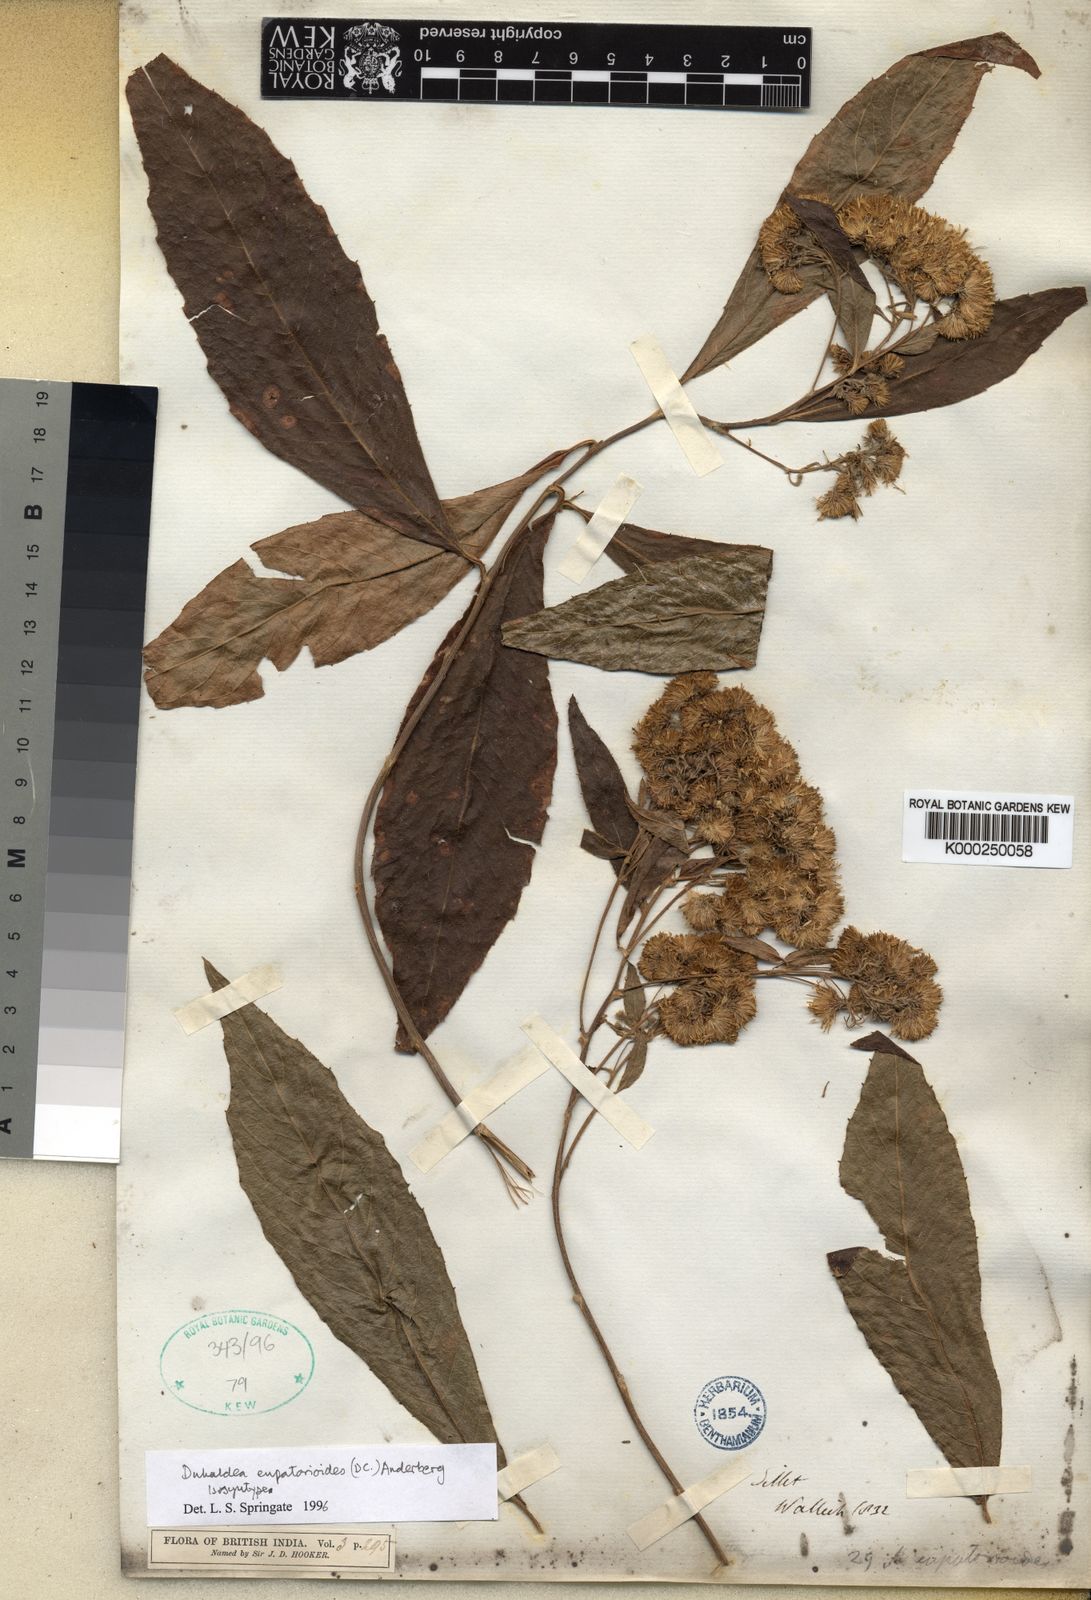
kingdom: Plantae
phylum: Tracheophyta
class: Magnoliopsida
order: Asterales
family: Asteraceae
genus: Duhaldea
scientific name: Duhaldea eupatorioides
